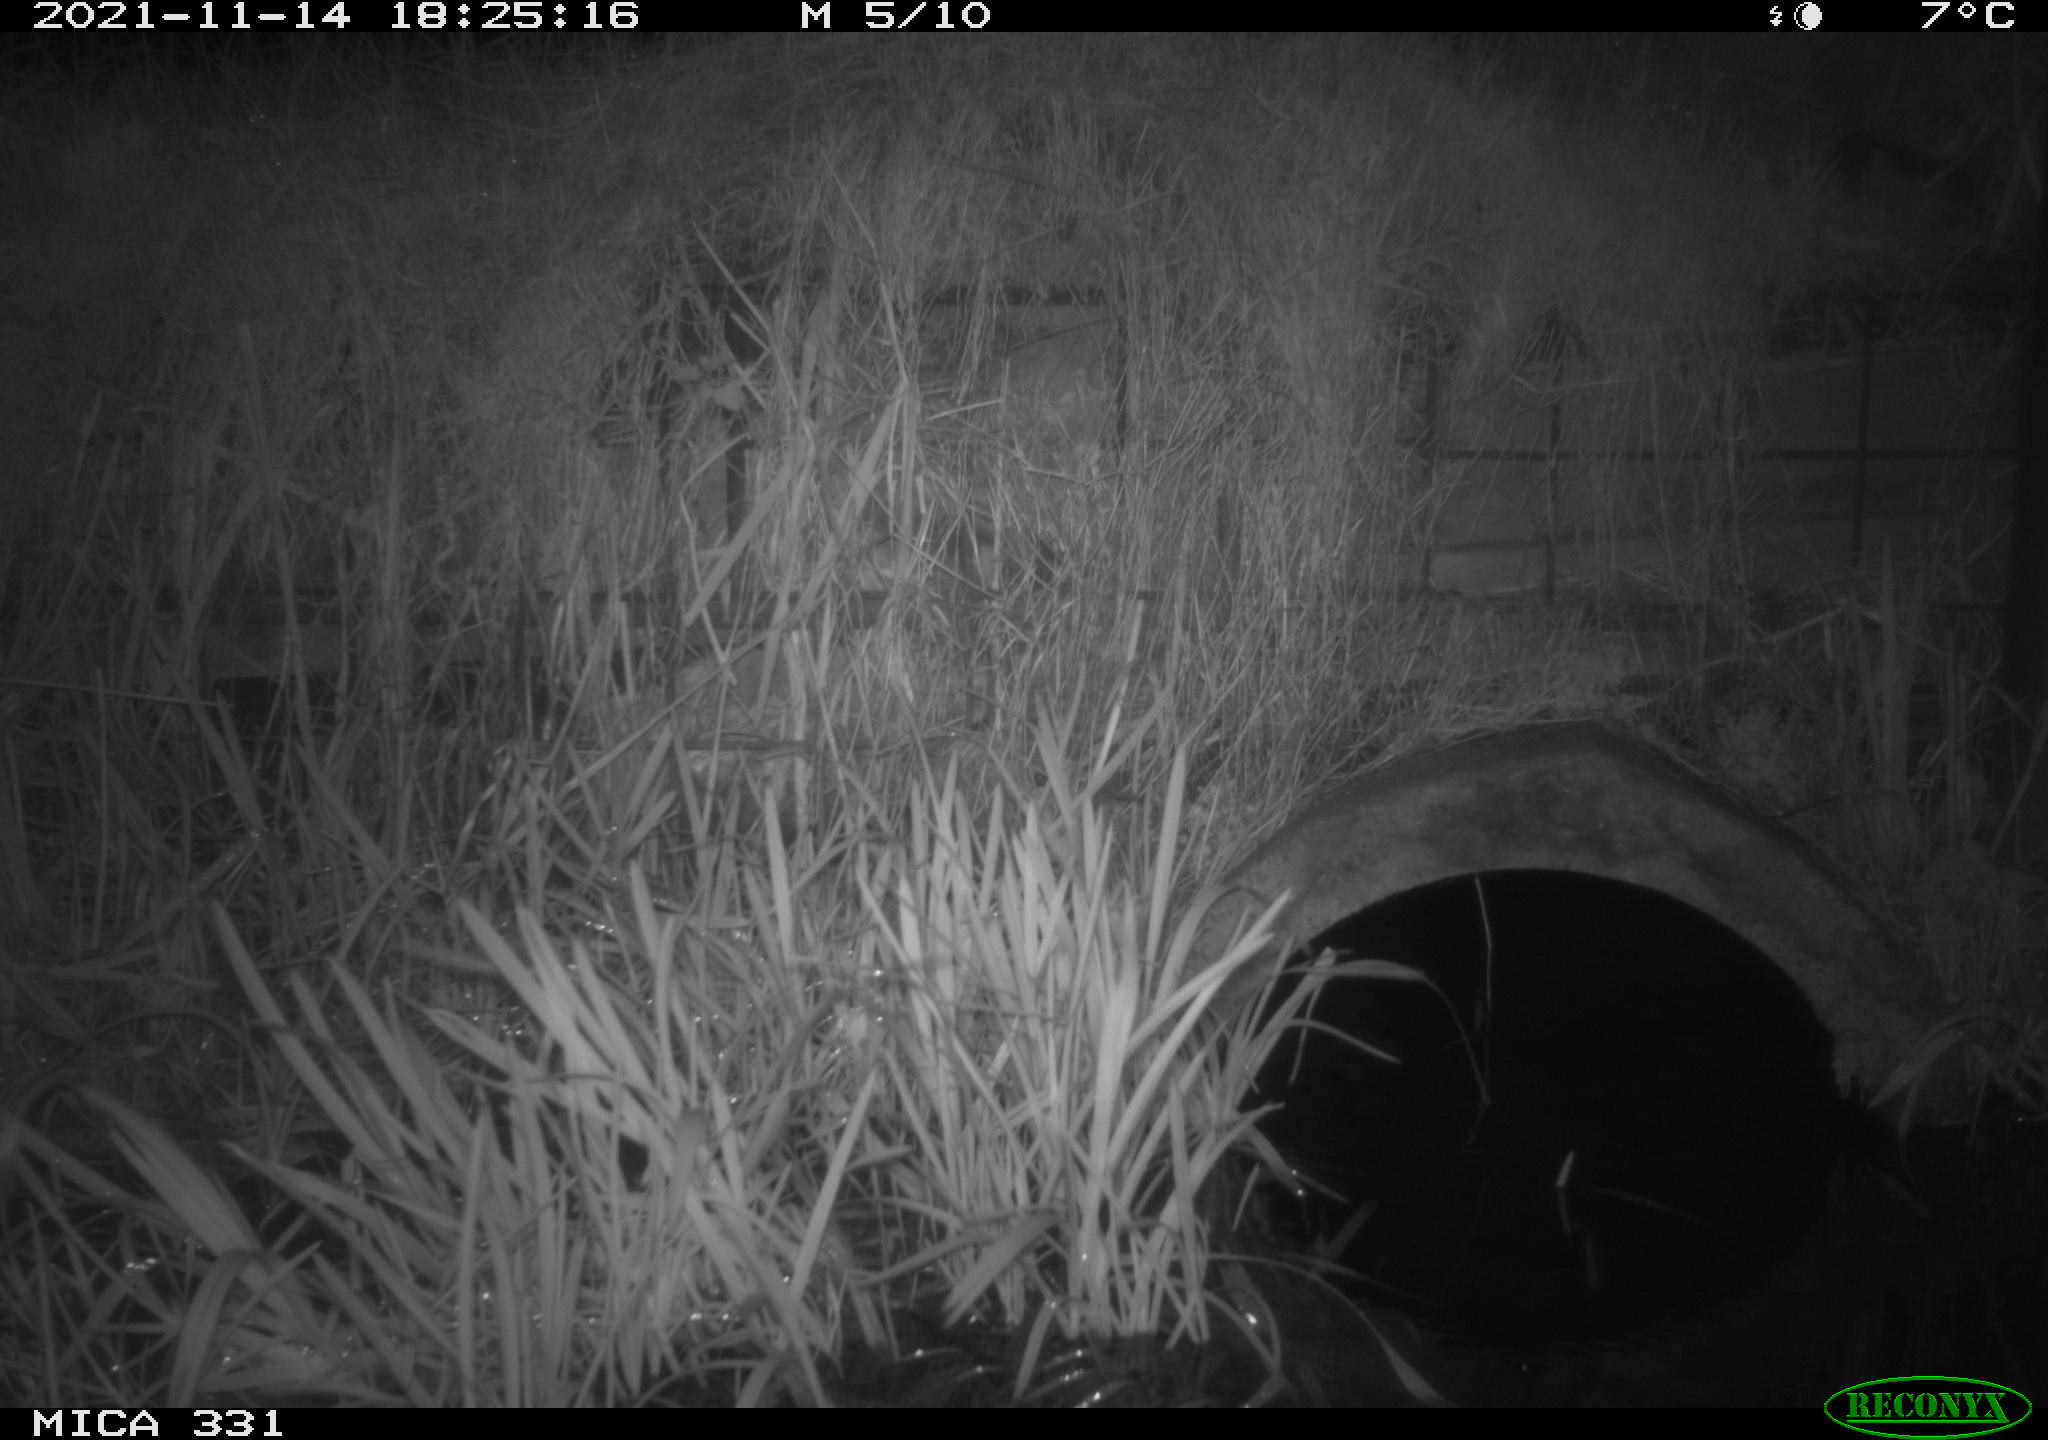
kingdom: Animalia
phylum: Chordata
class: Mammalia
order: Rodentia
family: Muridae
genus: Rattus
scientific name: Rattus norvegicus
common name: Brown rat
